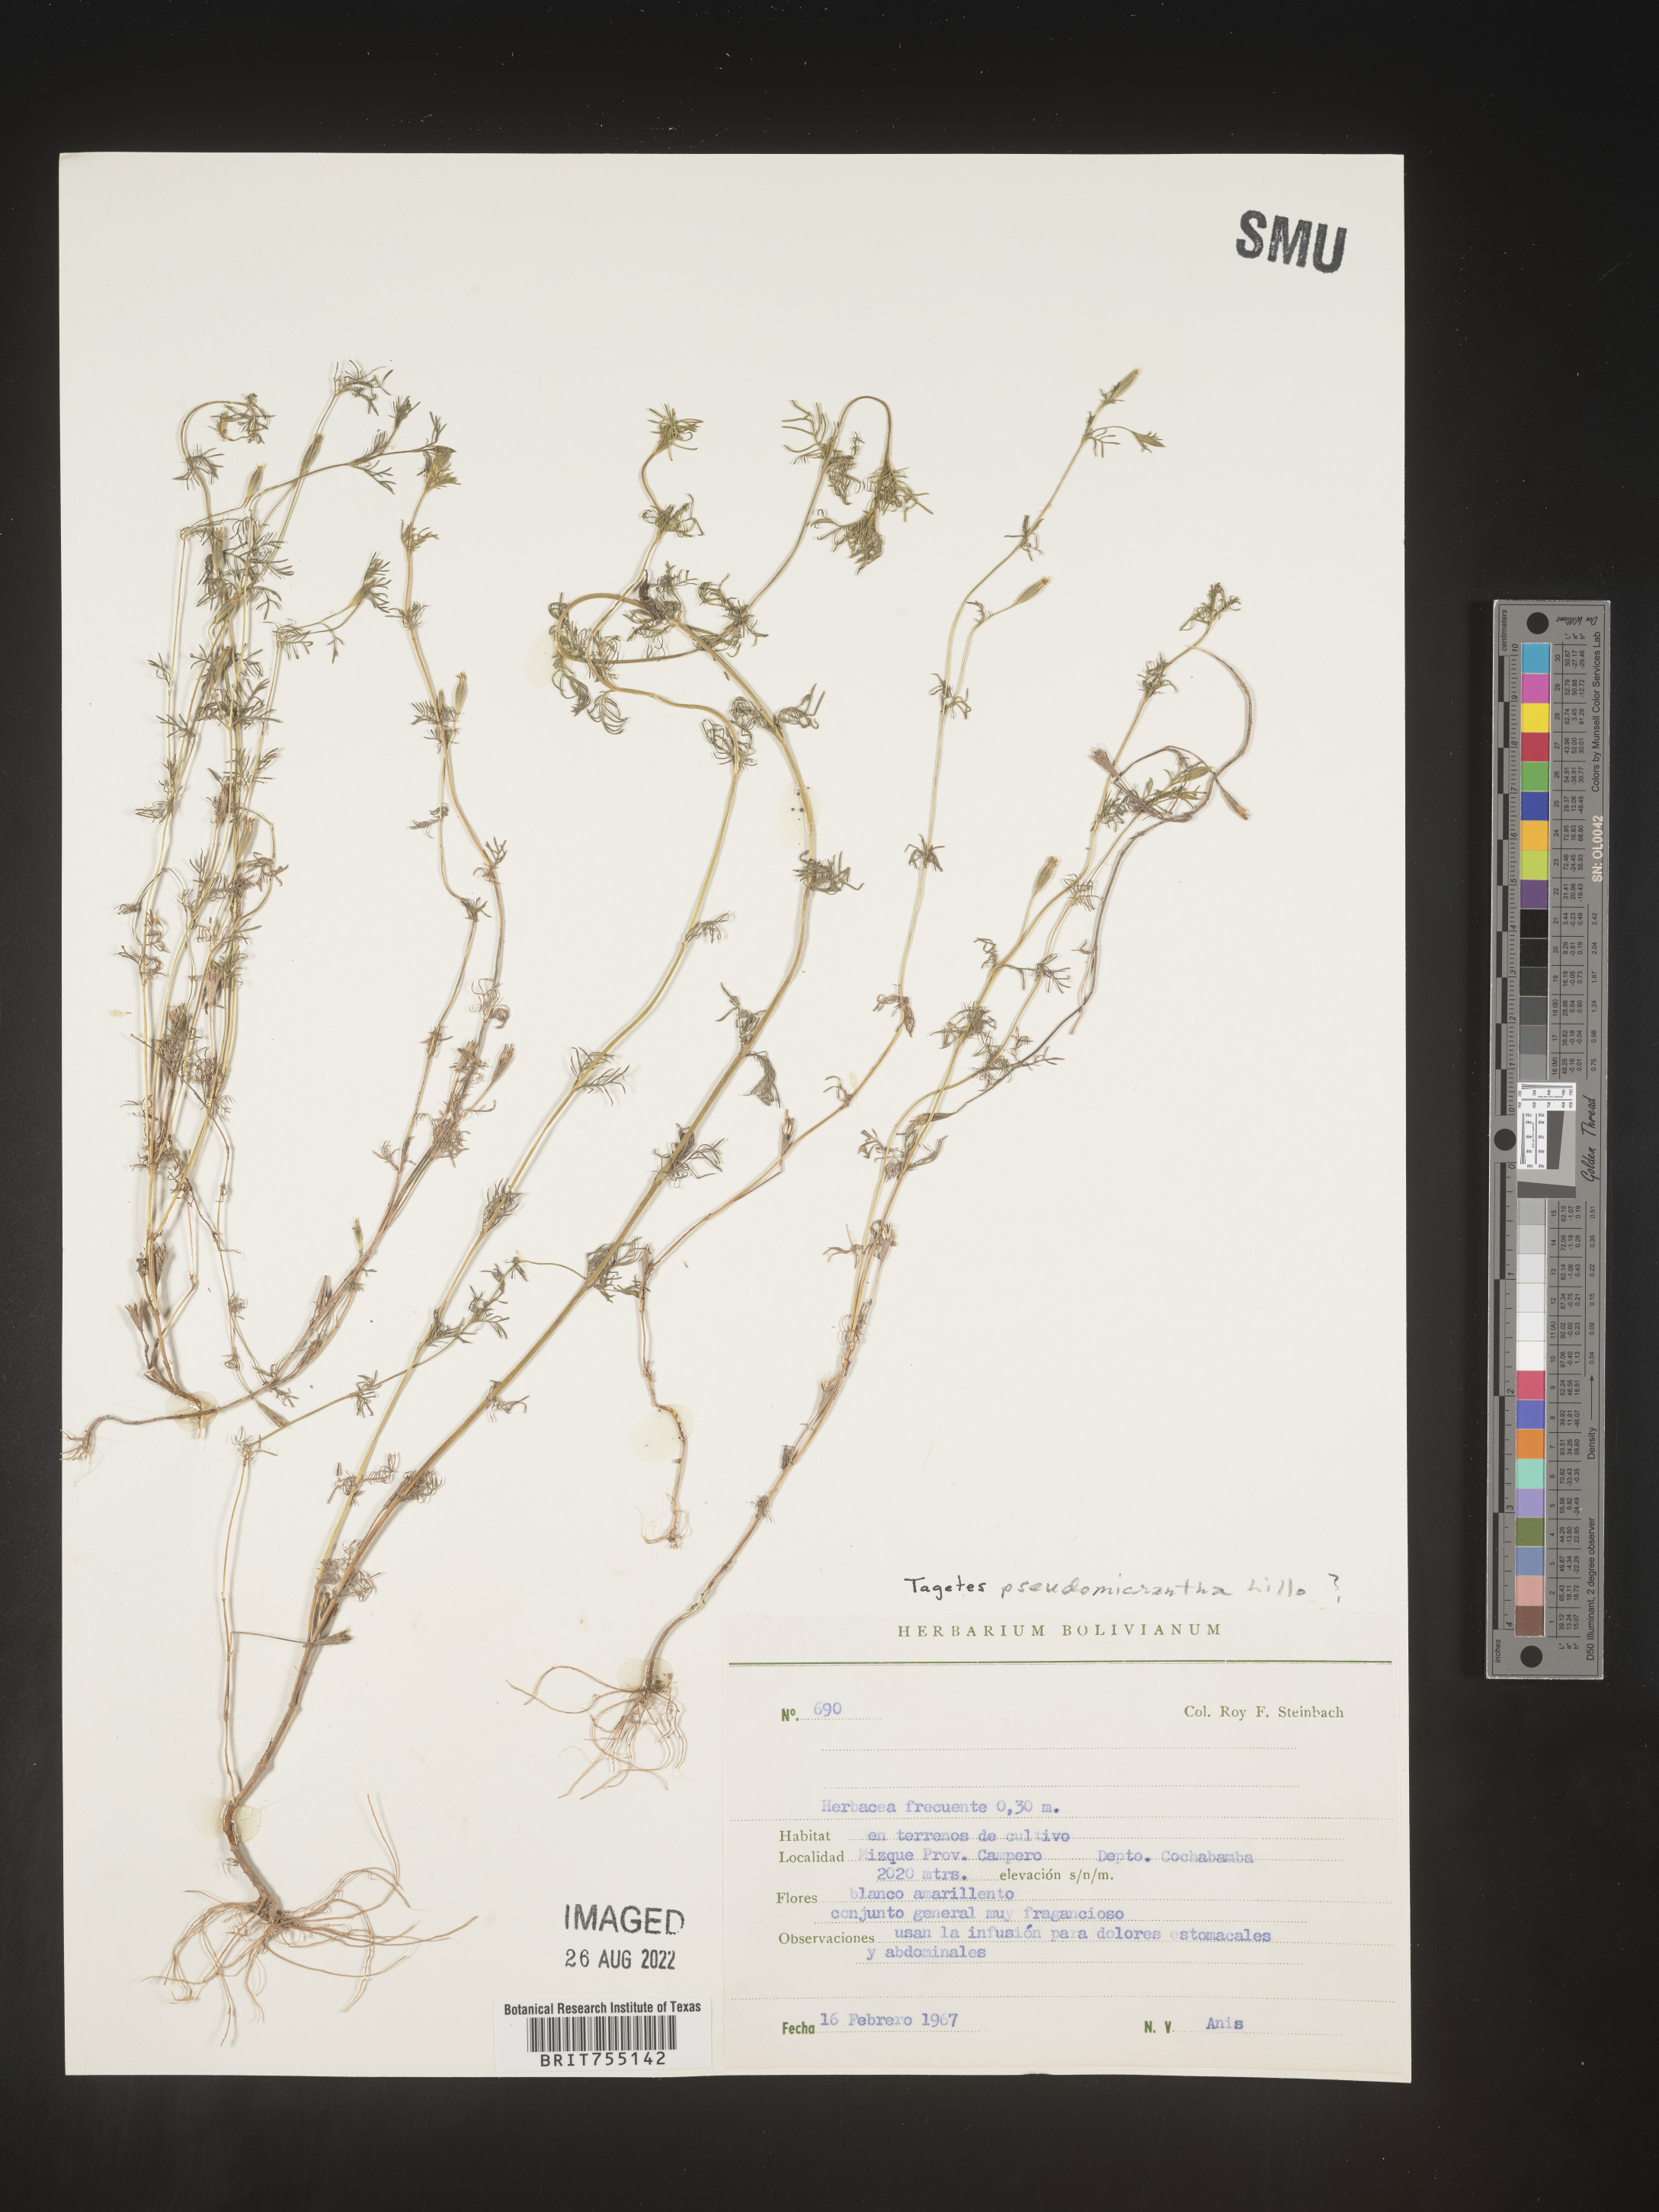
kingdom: Plantae
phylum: Tracheophyta
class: Magnoliopsida
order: Asterales
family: Asteraceae
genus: Tagetes
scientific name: Tagetes
